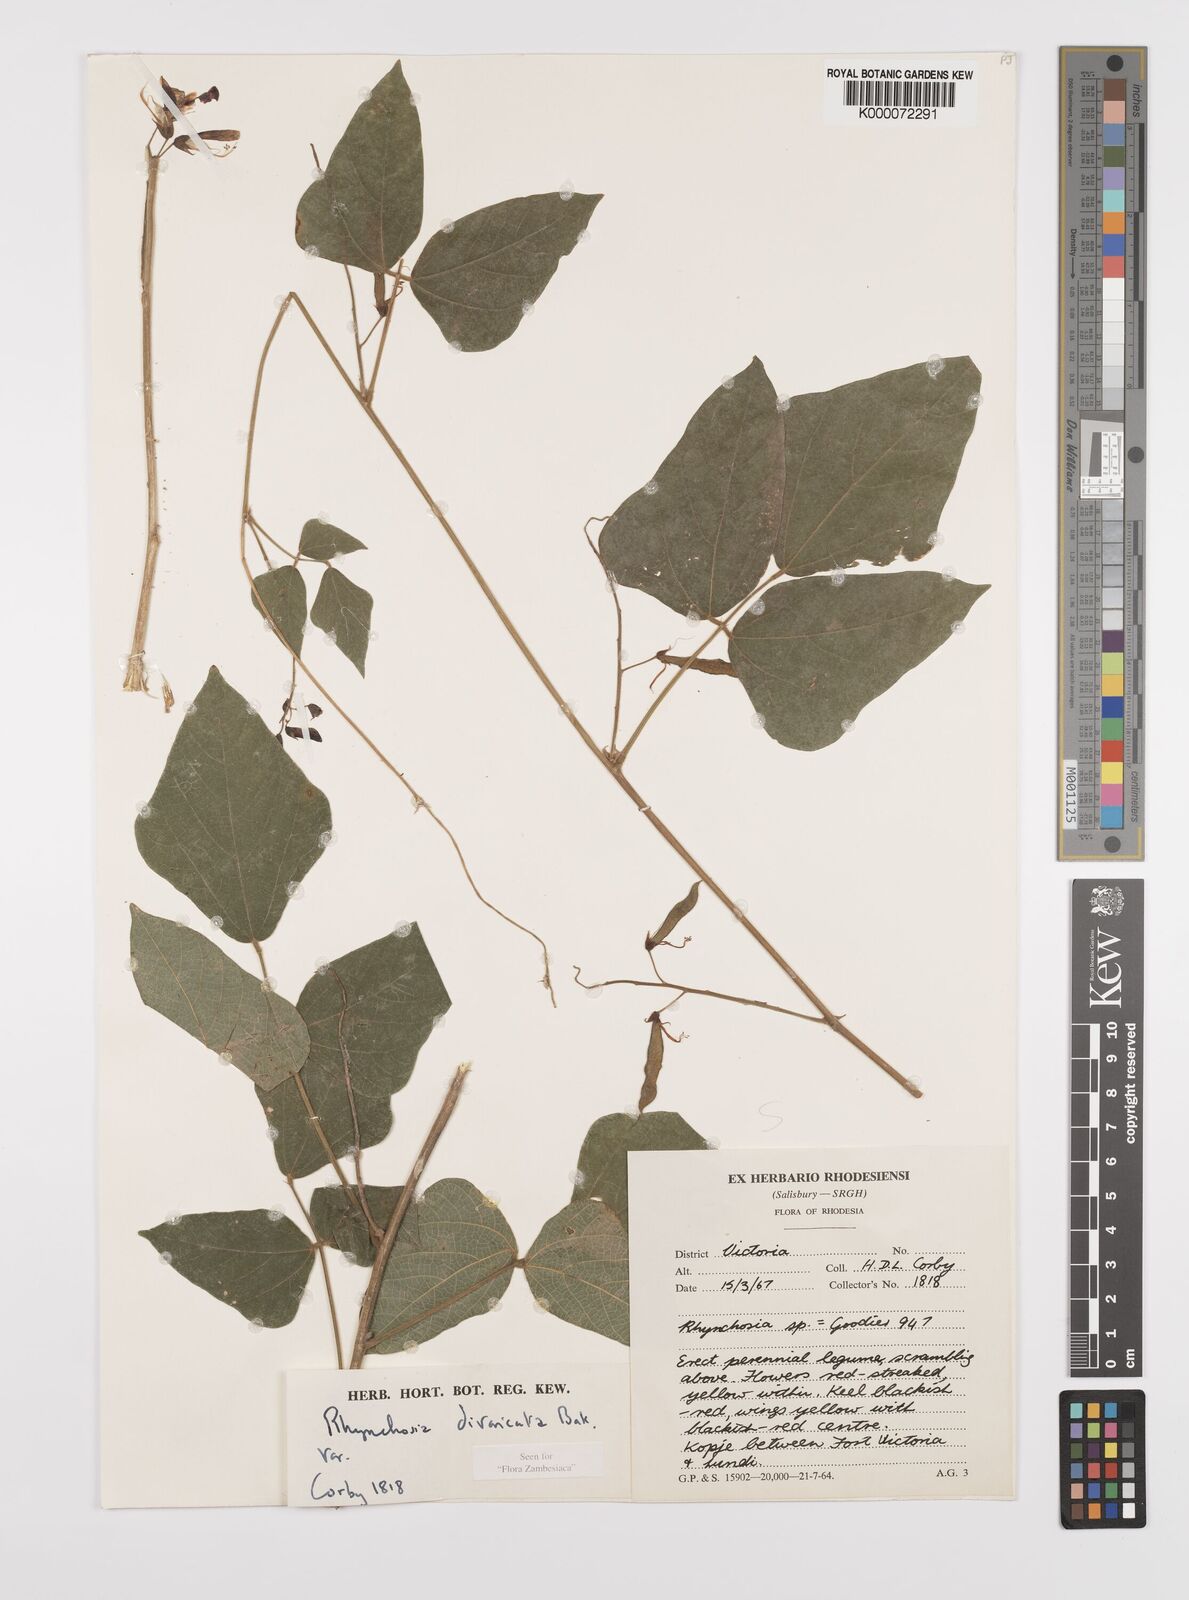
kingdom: Plantae
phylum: Tracheophyta
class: Magnoliopsida
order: Fabales
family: Fabaceae
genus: Rhynchosia
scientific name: Rhynchosia divaricata
